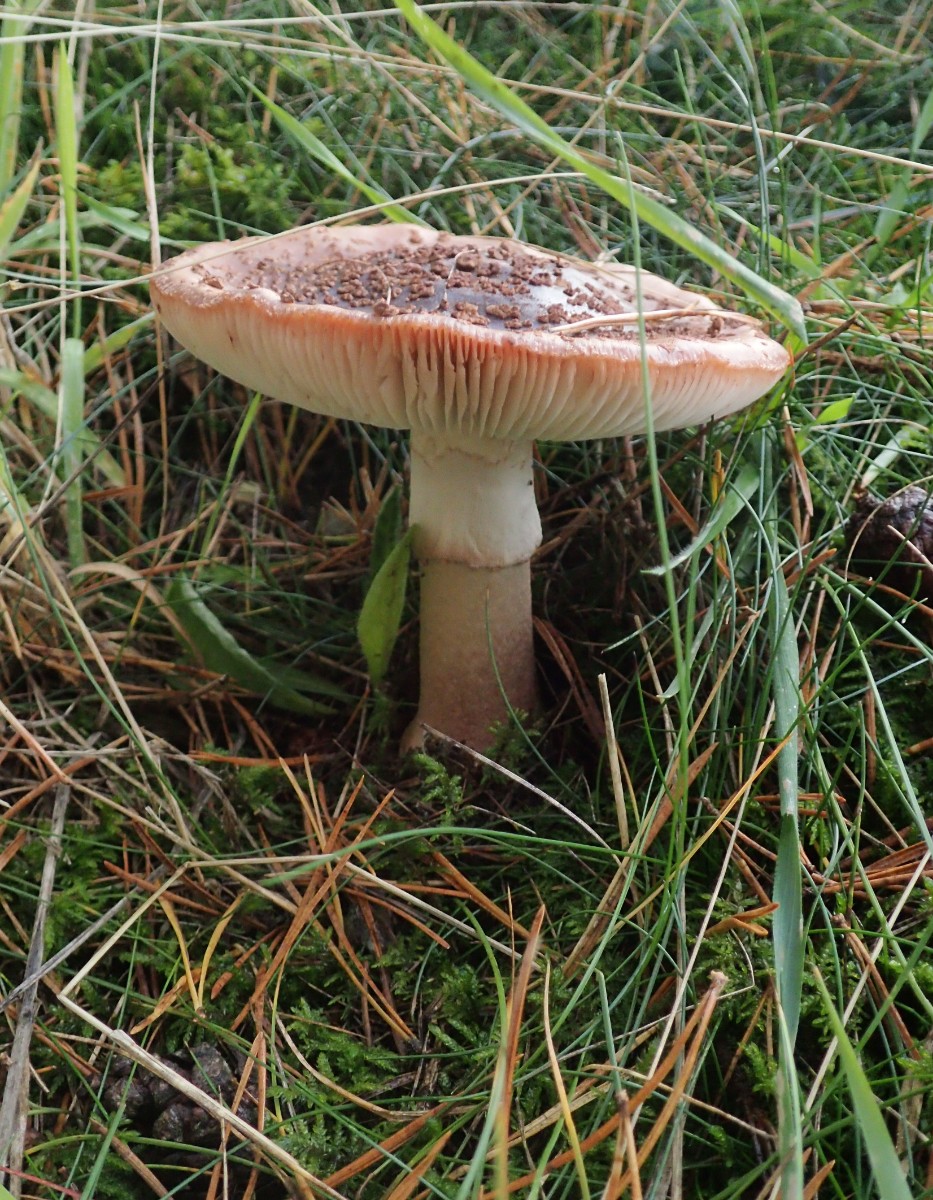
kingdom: Fungi
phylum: Basidiomycota
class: Agaricomycetes
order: Agaricales
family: Amanitaceae
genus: Amanita
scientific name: Amanita rubescens
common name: rødmende fluesvamp
